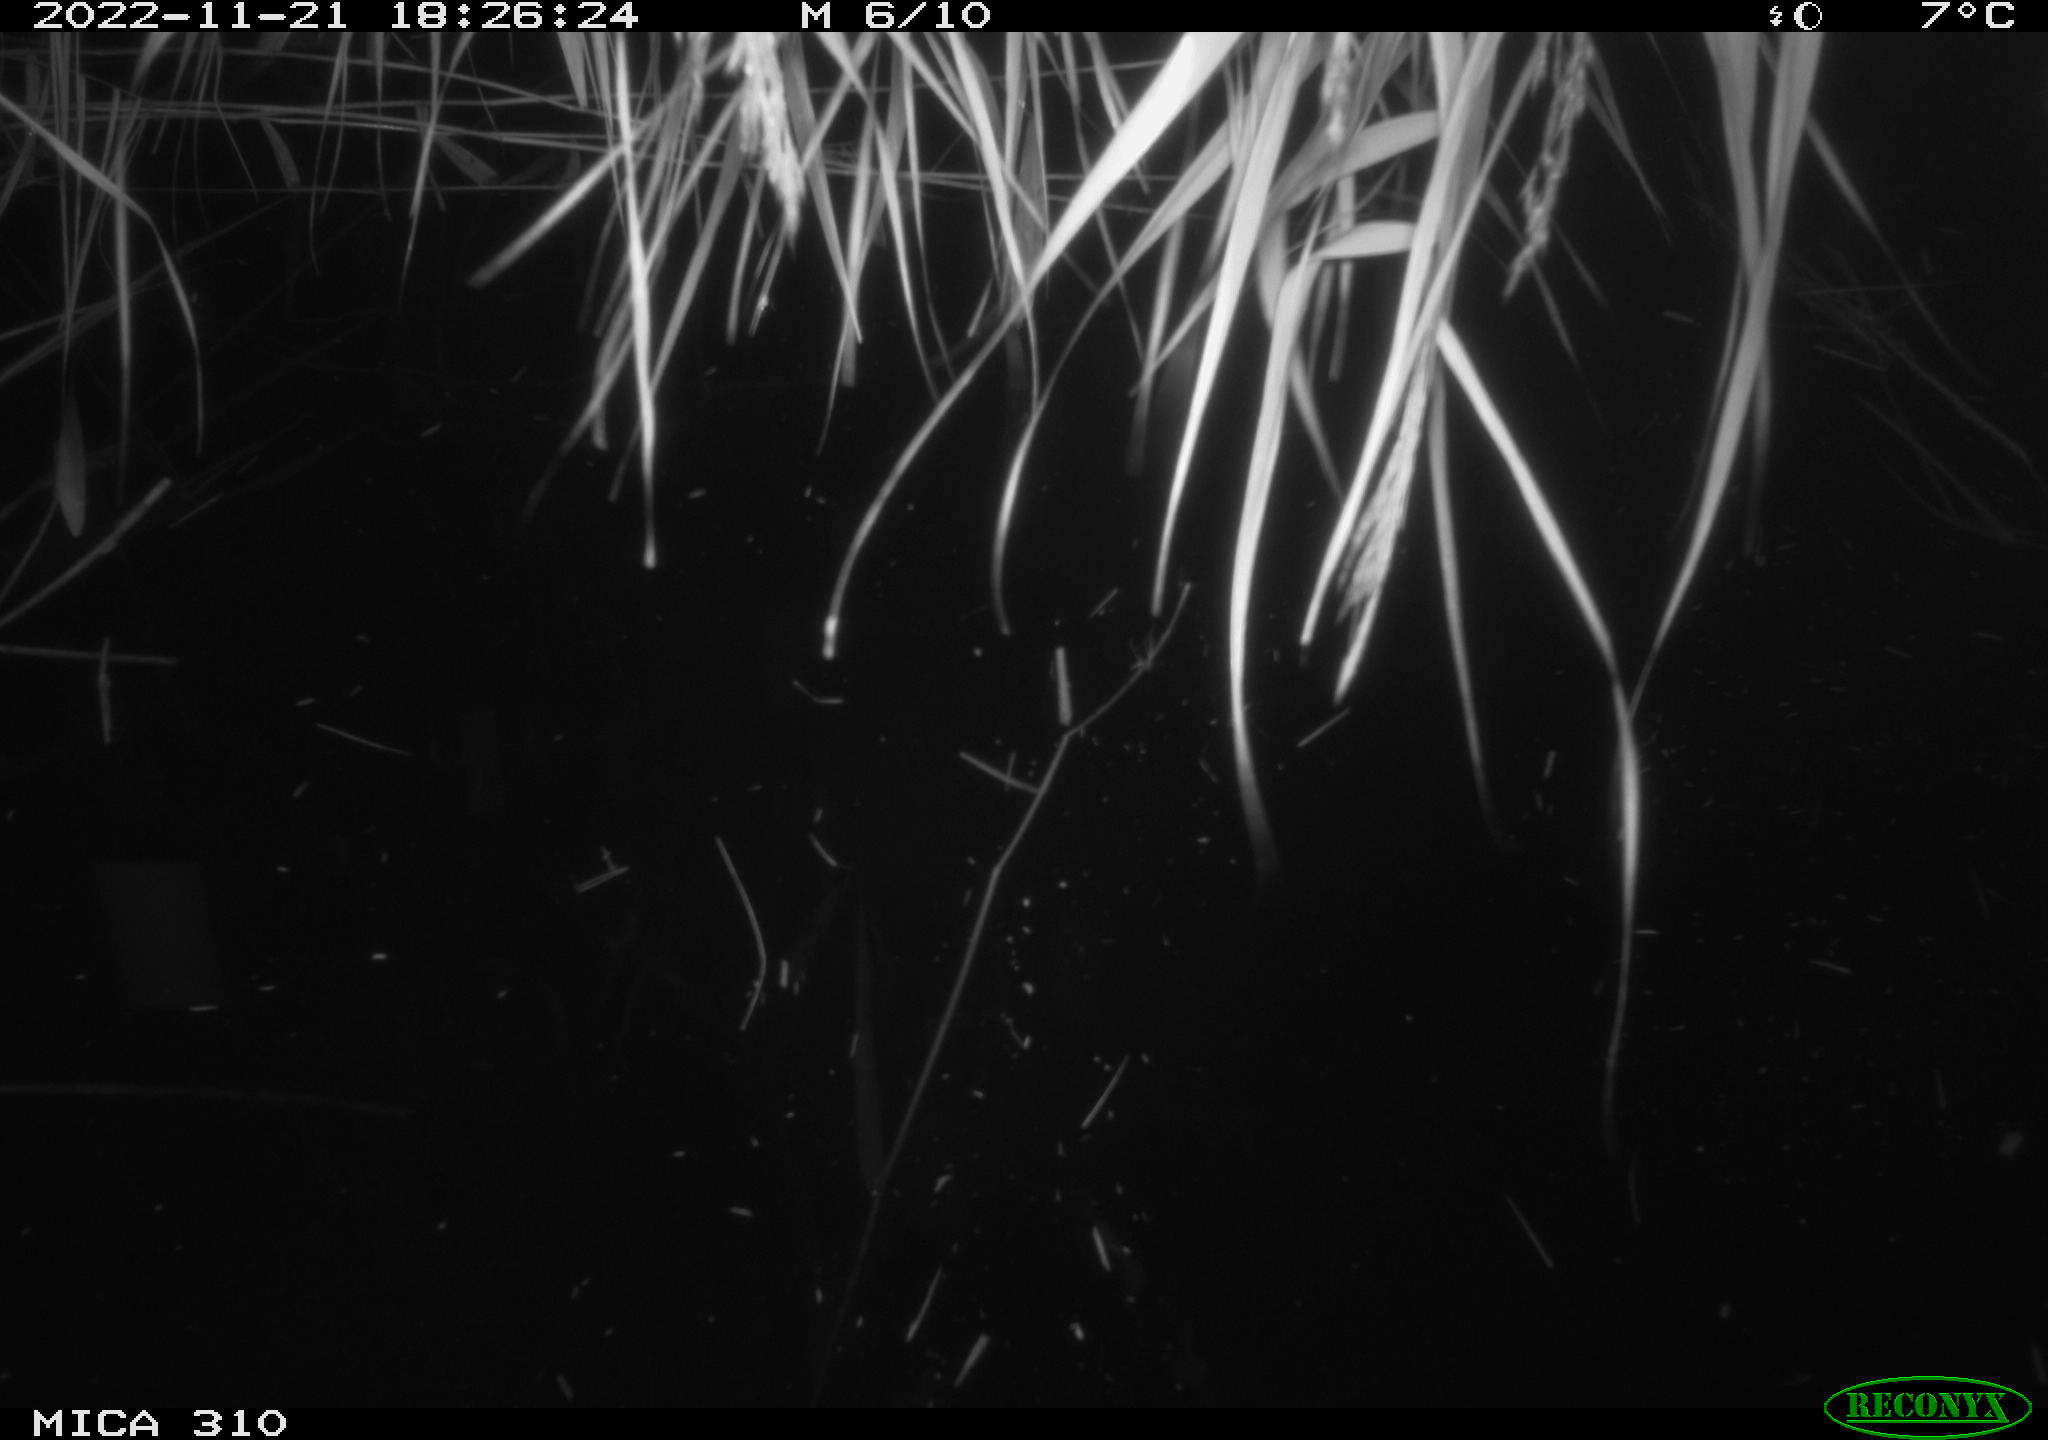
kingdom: Animalia
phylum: Chordata
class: Mammalia
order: Rodentia
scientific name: Rodentia
